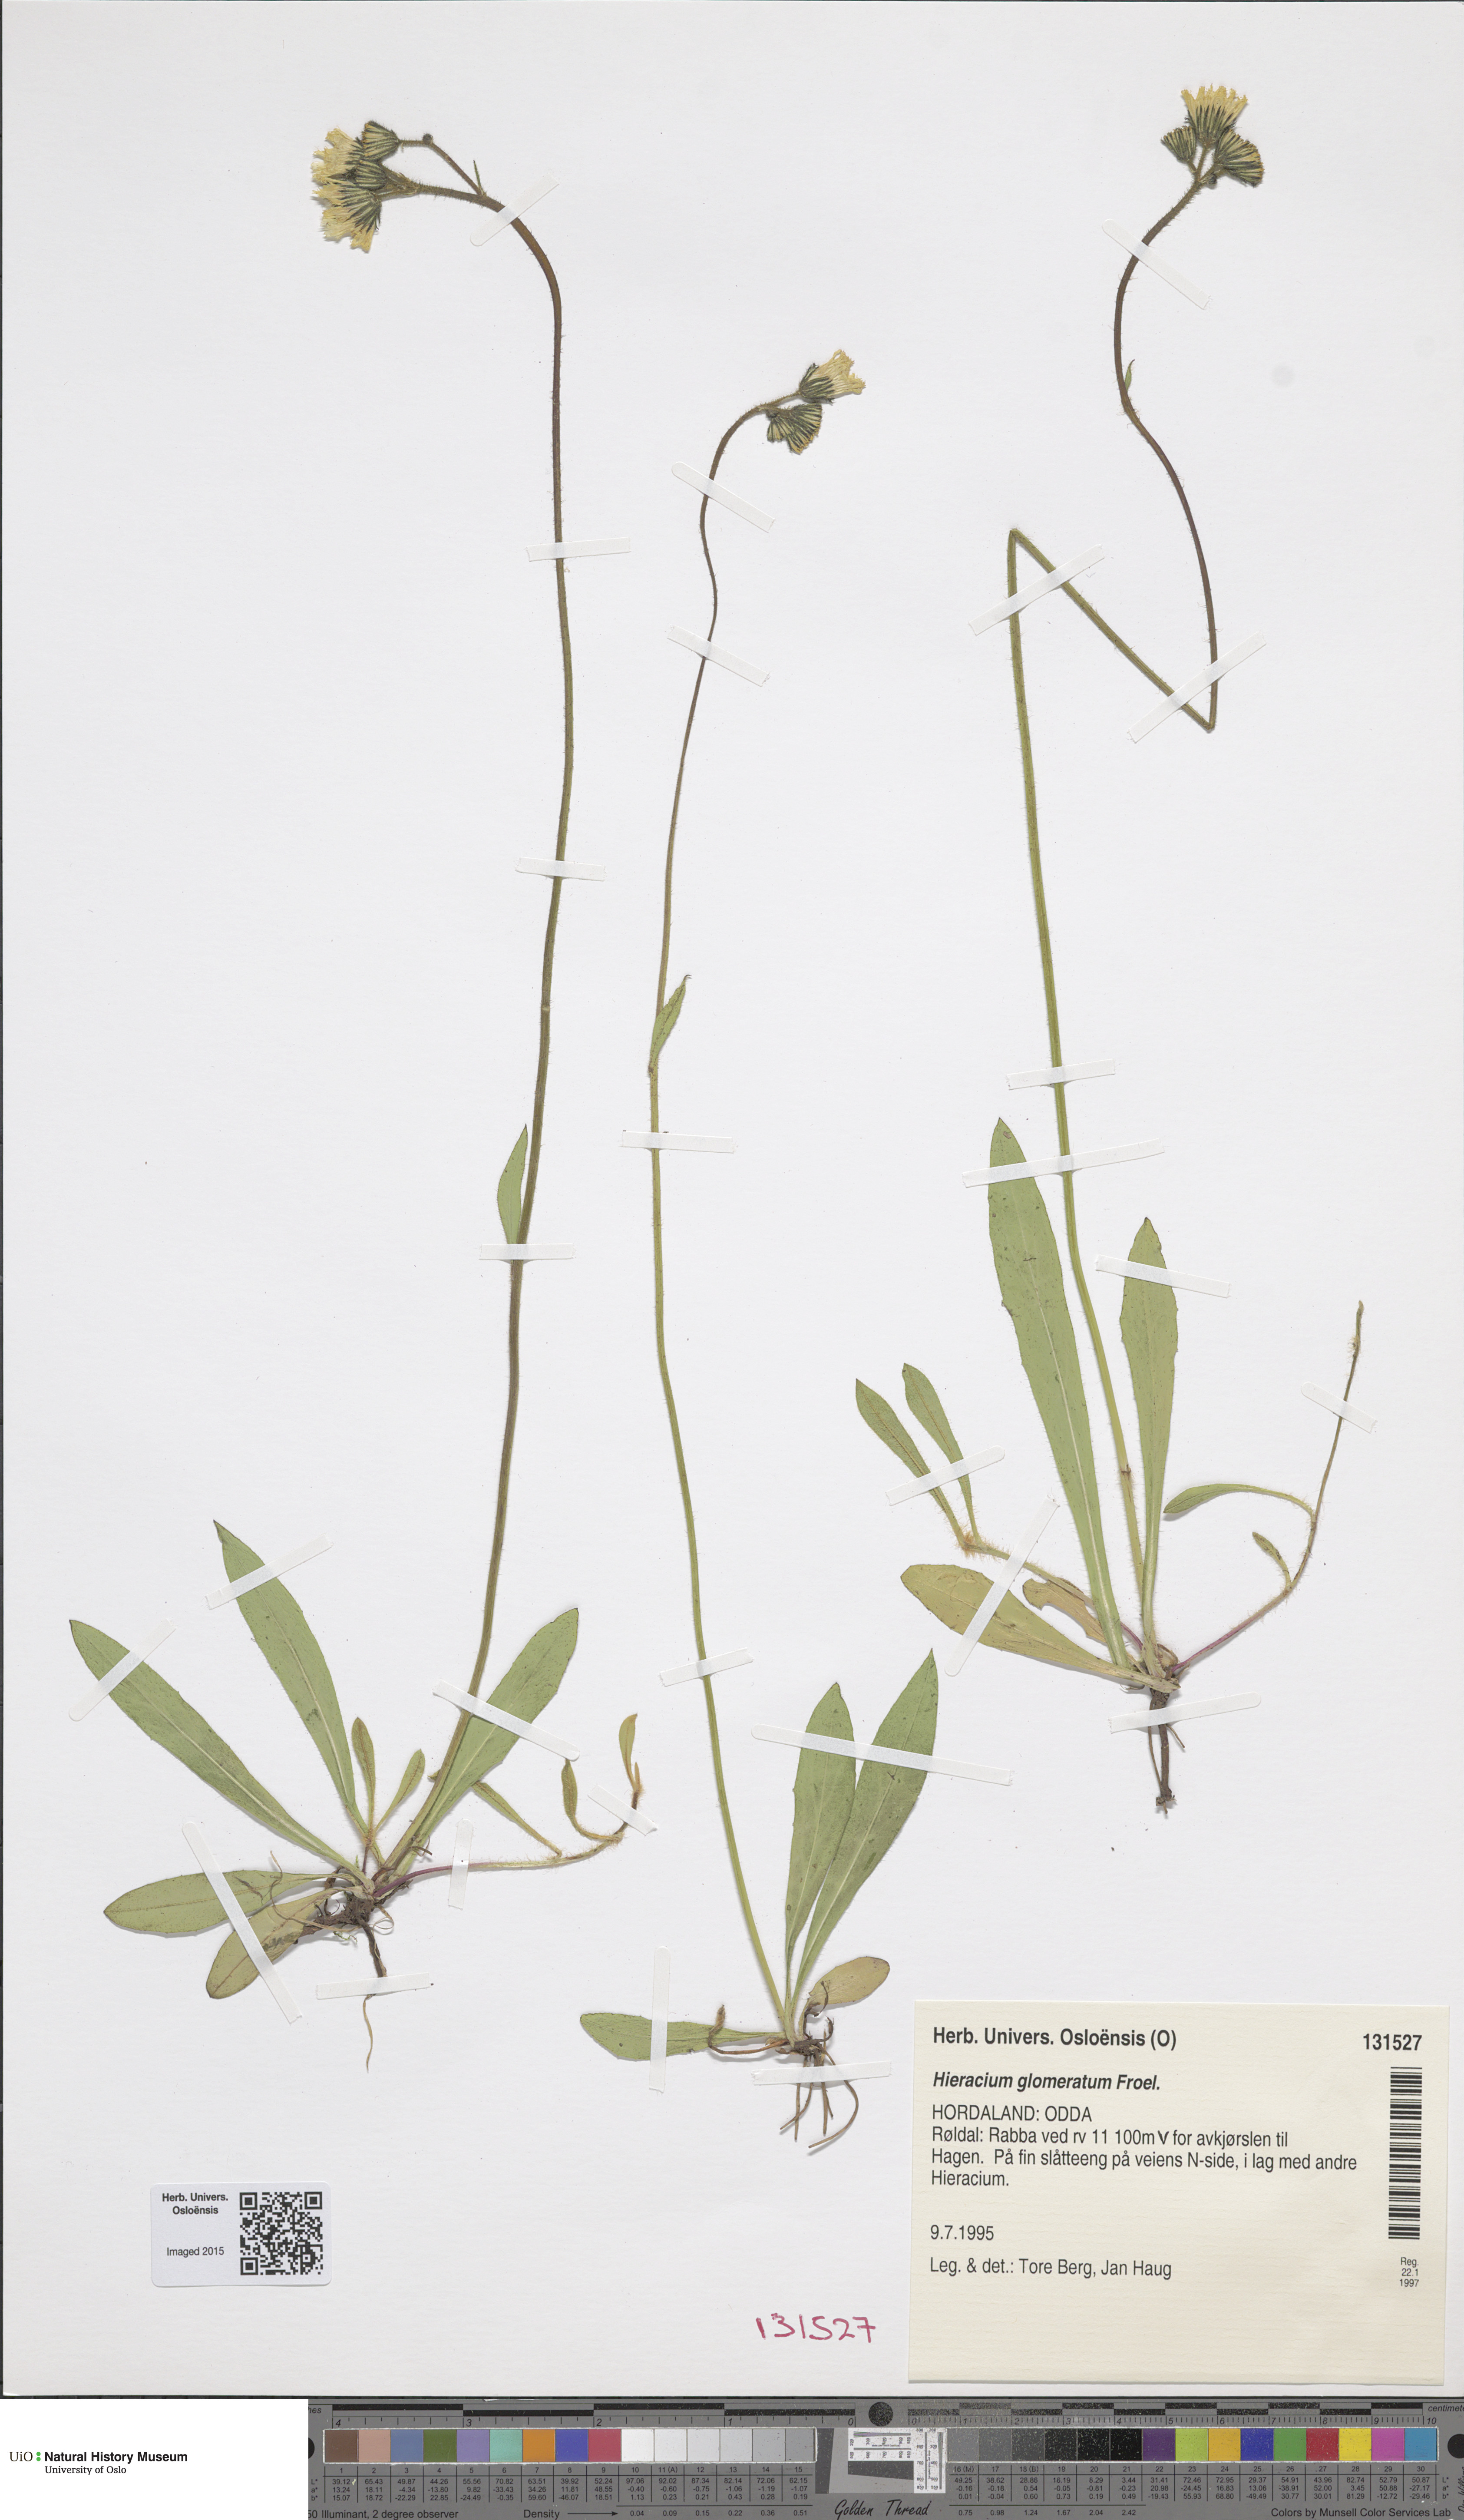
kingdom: Plantae
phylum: Tracheophyta
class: Magnoliopsida
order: Asterales
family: Asteraceae
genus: Pilosella
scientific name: Pilosella glomerata
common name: Queen devil hawkweed
